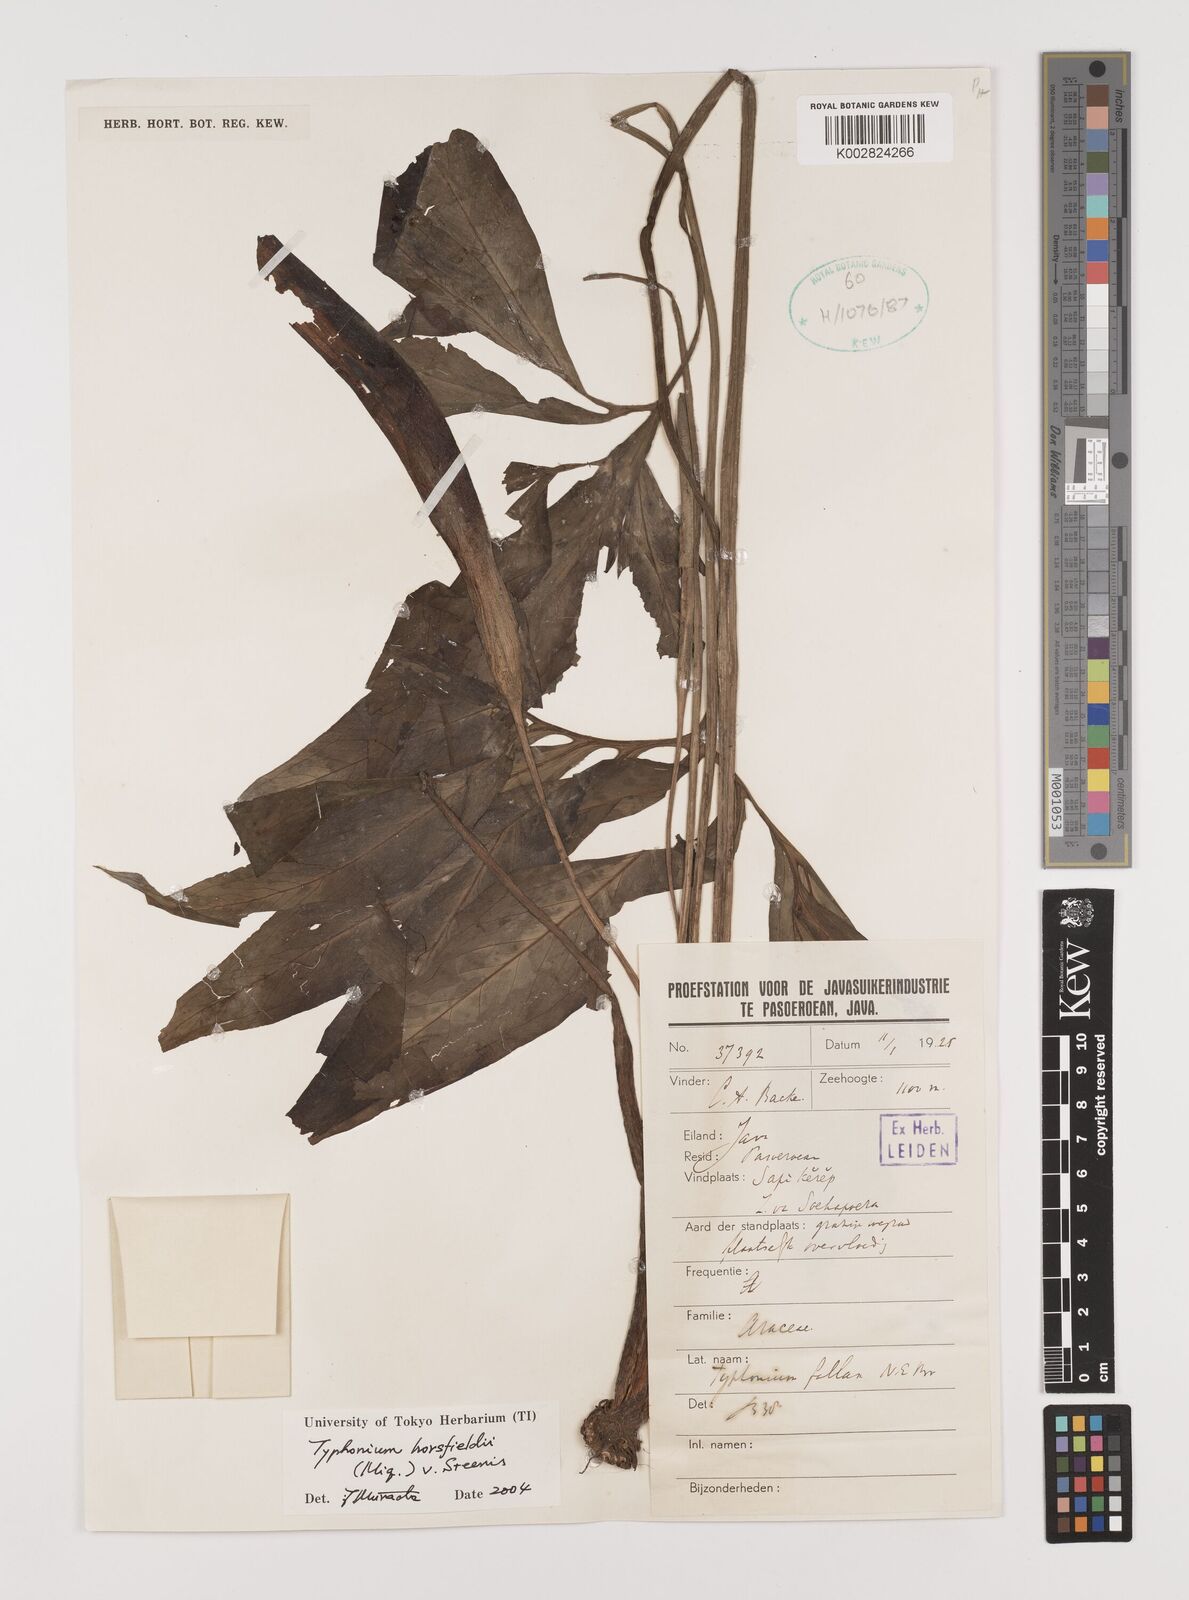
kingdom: Plantae
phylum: Tracheophyta
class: Liliopsida
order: Alismatales
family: Araceae
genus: Sauromatum
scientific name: Sauromatum horsfieldii
